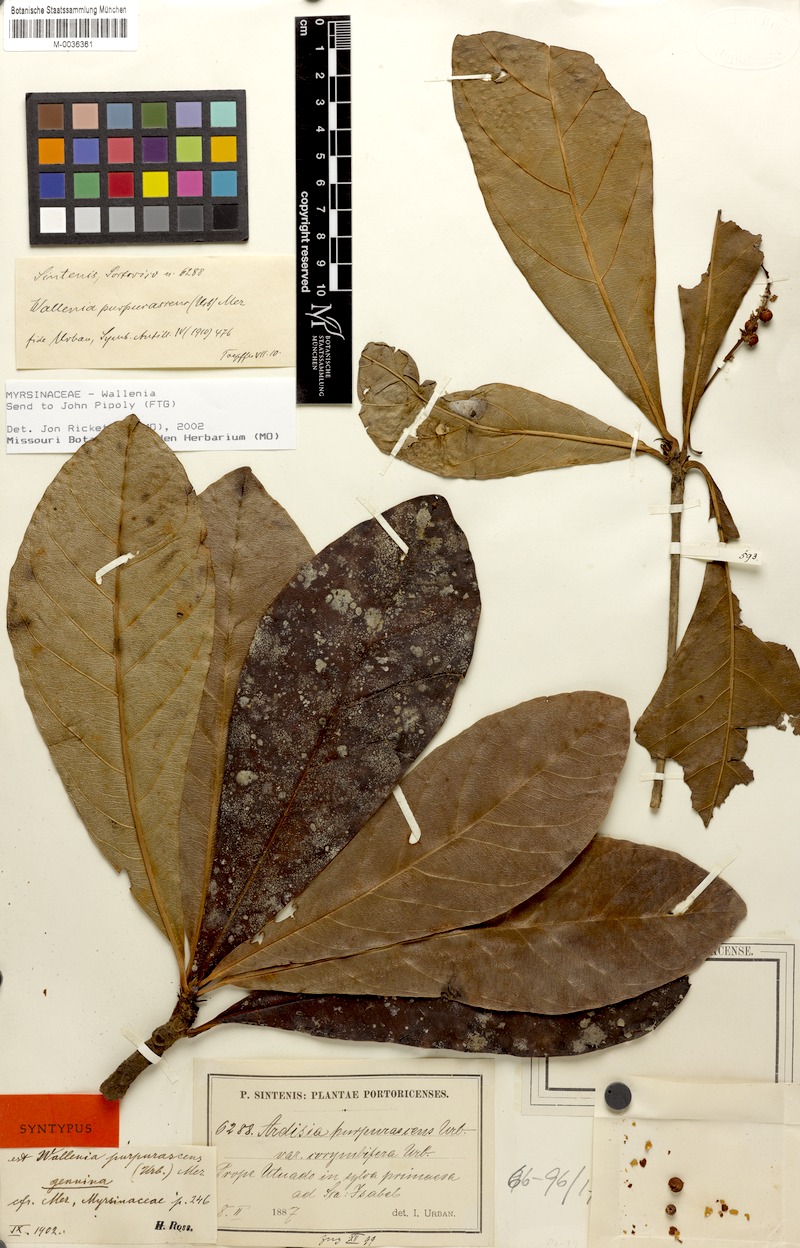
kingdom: Plantae
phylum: Tracheophyta
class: Magnoliopsida
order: Ericales
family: Primulaceae
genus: Wallenia
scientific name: Wallenia lamarckiana
